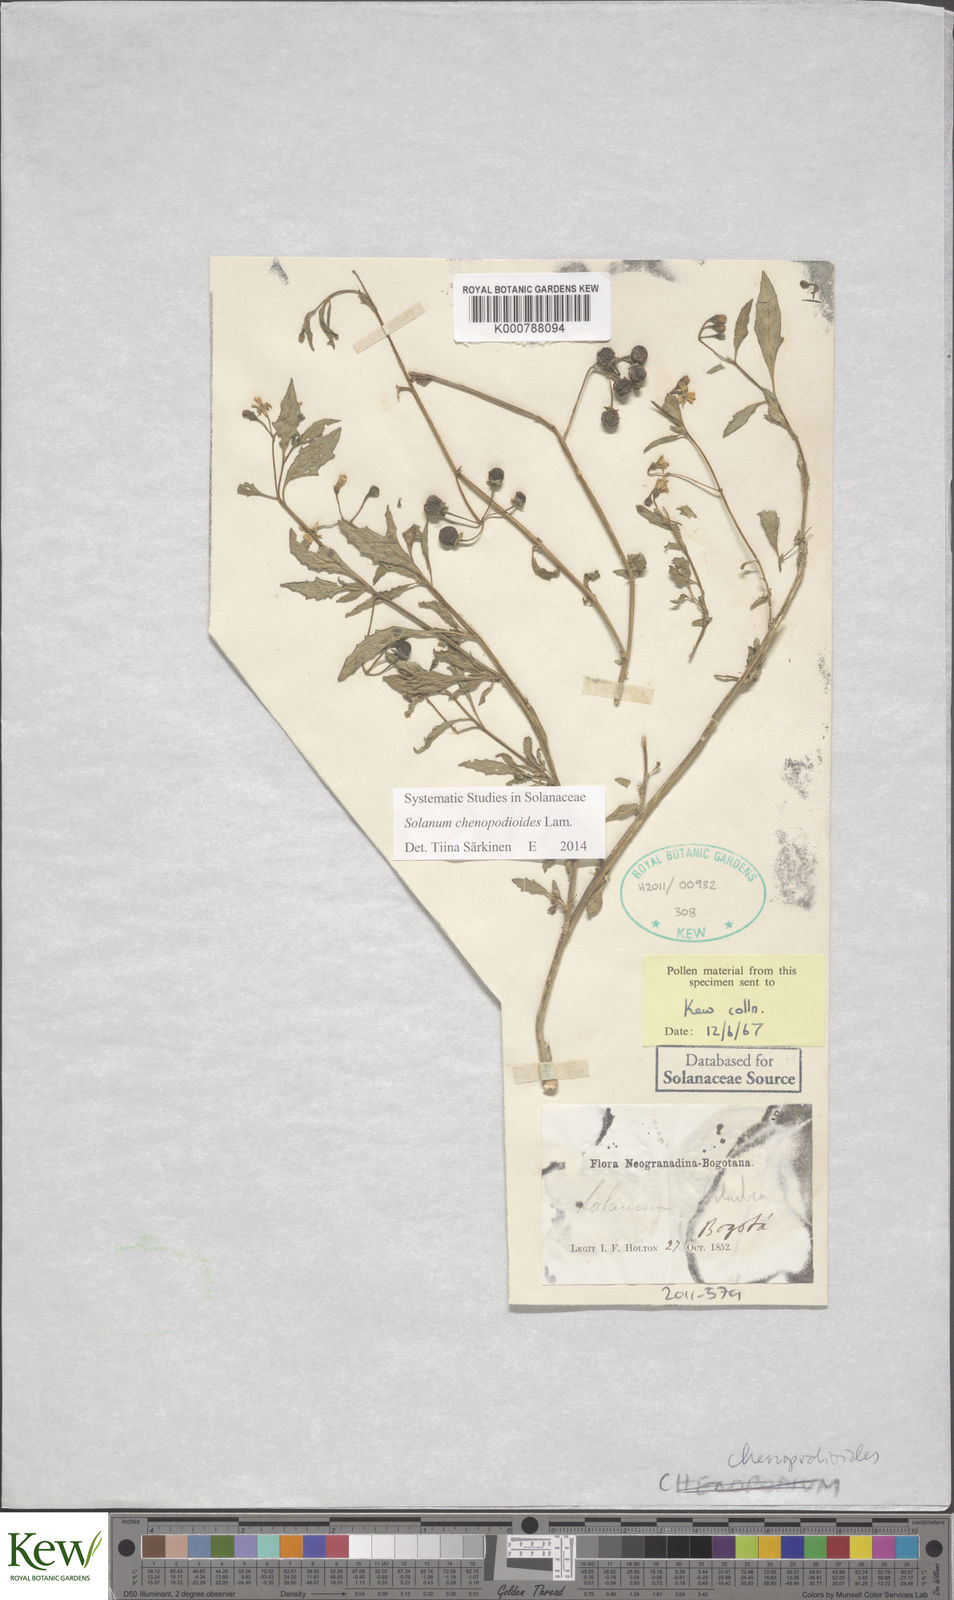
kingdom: Plantae
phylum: Tracheophyta
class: Magnoliopsida
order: Solanales
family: Solanaceae
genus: Solanum
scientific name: Solanum chenopodioides
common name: Tall nightshade
